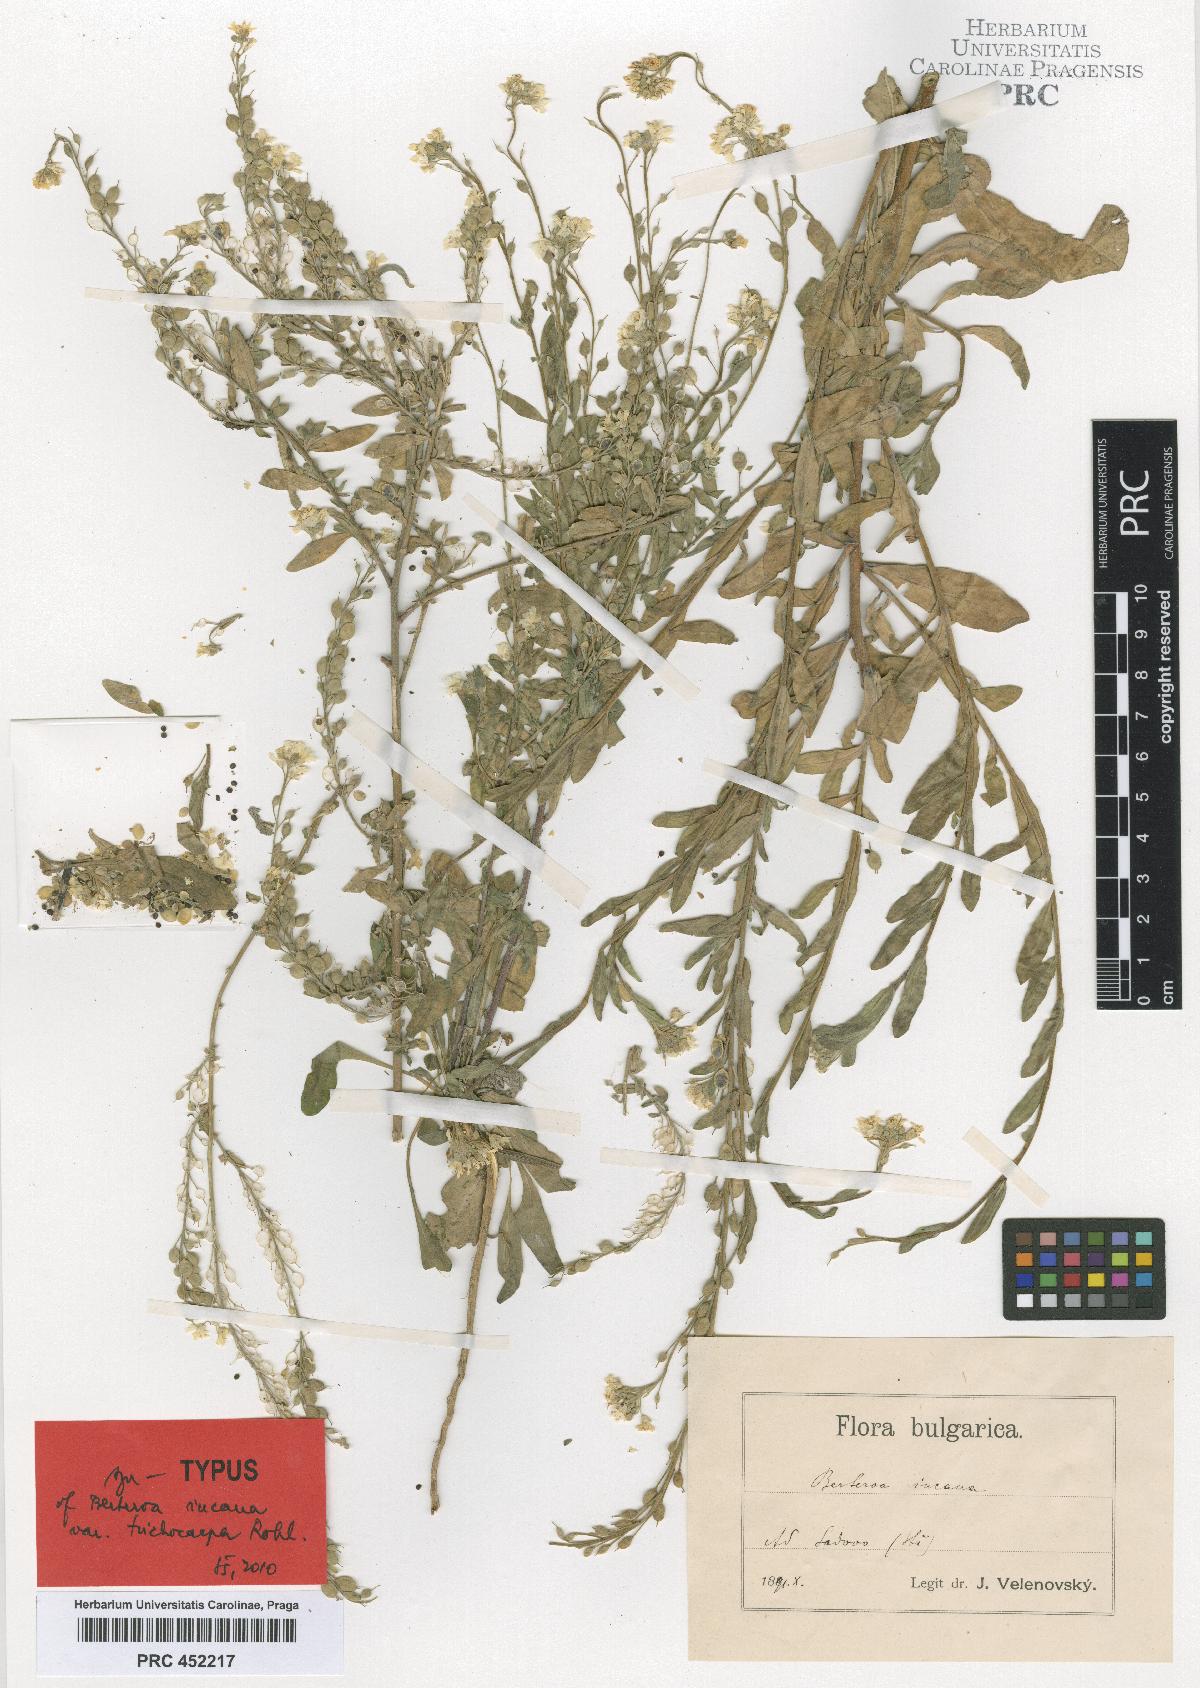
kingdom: Plantae
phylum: Tracheophyta
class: Magnoliopsida
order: Brassicales
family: Brassicaceae
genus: Berteroa
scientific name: Berteroa incana
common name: Hoary alison
